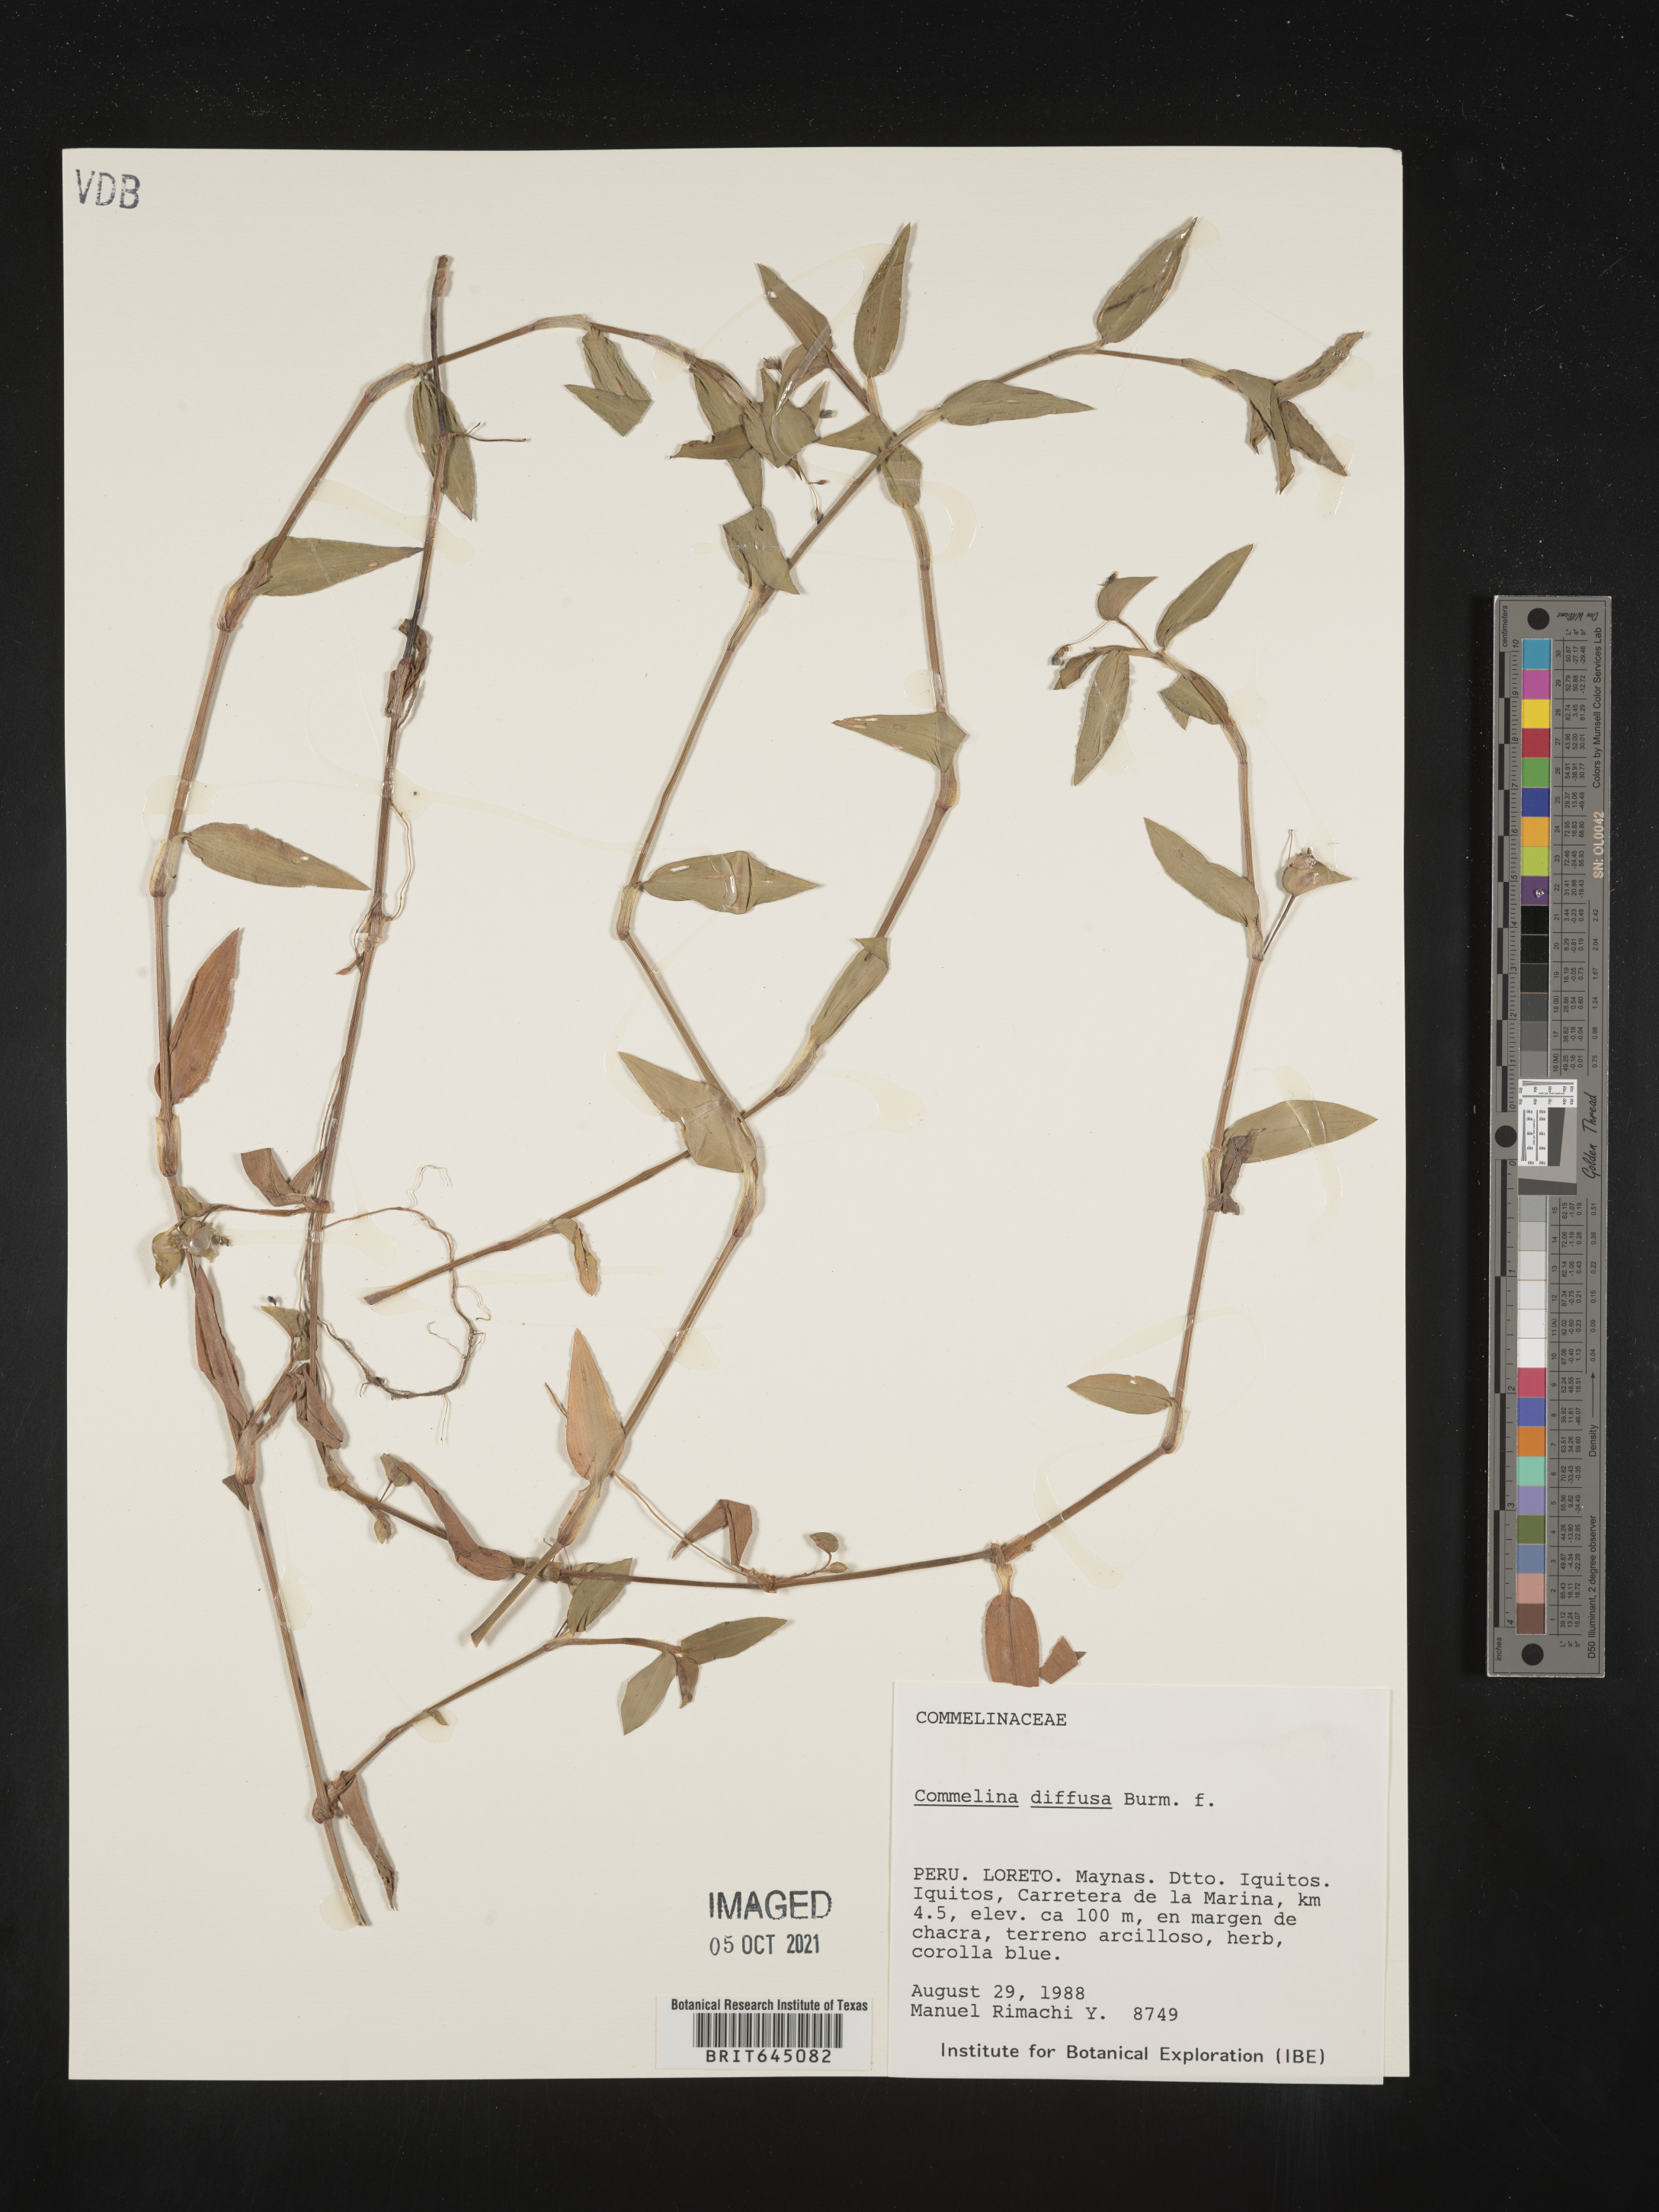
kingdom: Plantae
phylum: Tracheophyta
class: Liliopsida
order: Commelinales
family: Commelinaceae
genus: Commelina
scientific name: Commelina diffusa
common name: Climbing dayflower
